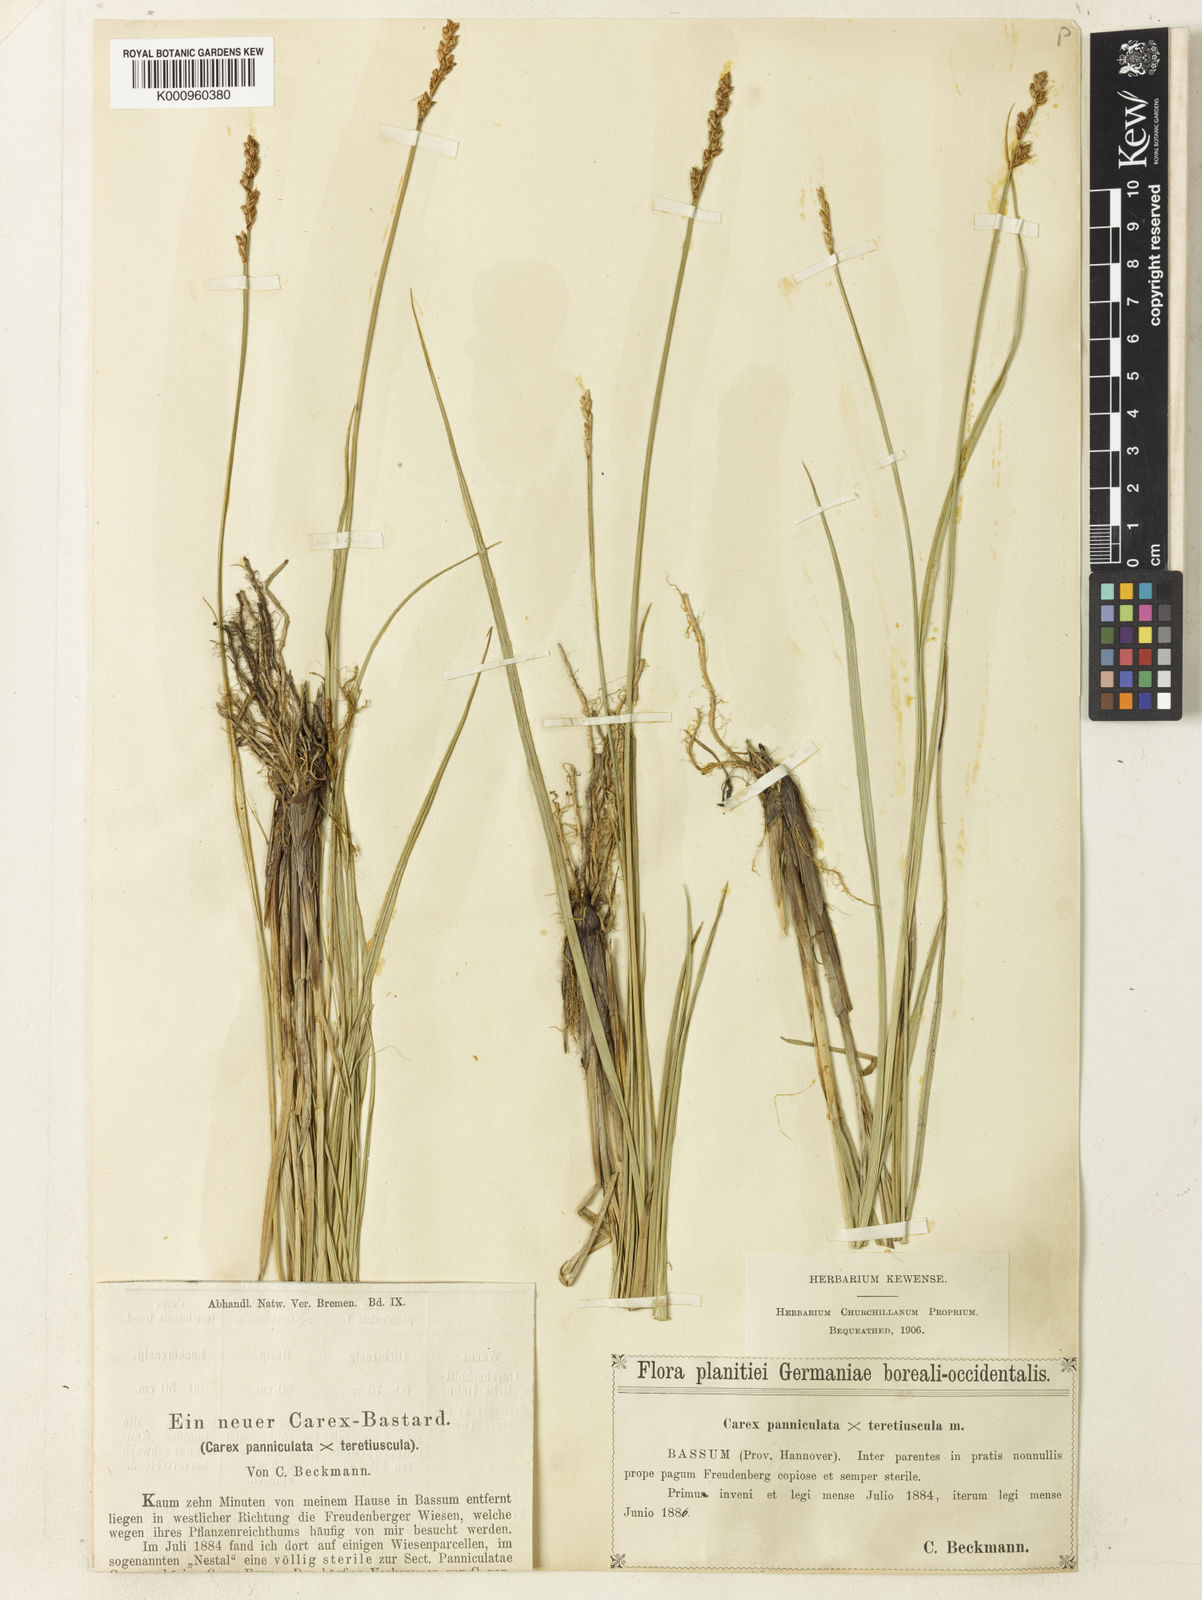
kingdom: Plantae
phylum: Tracheophyta
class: Liliopsida
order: Poales
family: Cyperaceae
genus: Carex
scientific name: Carex
